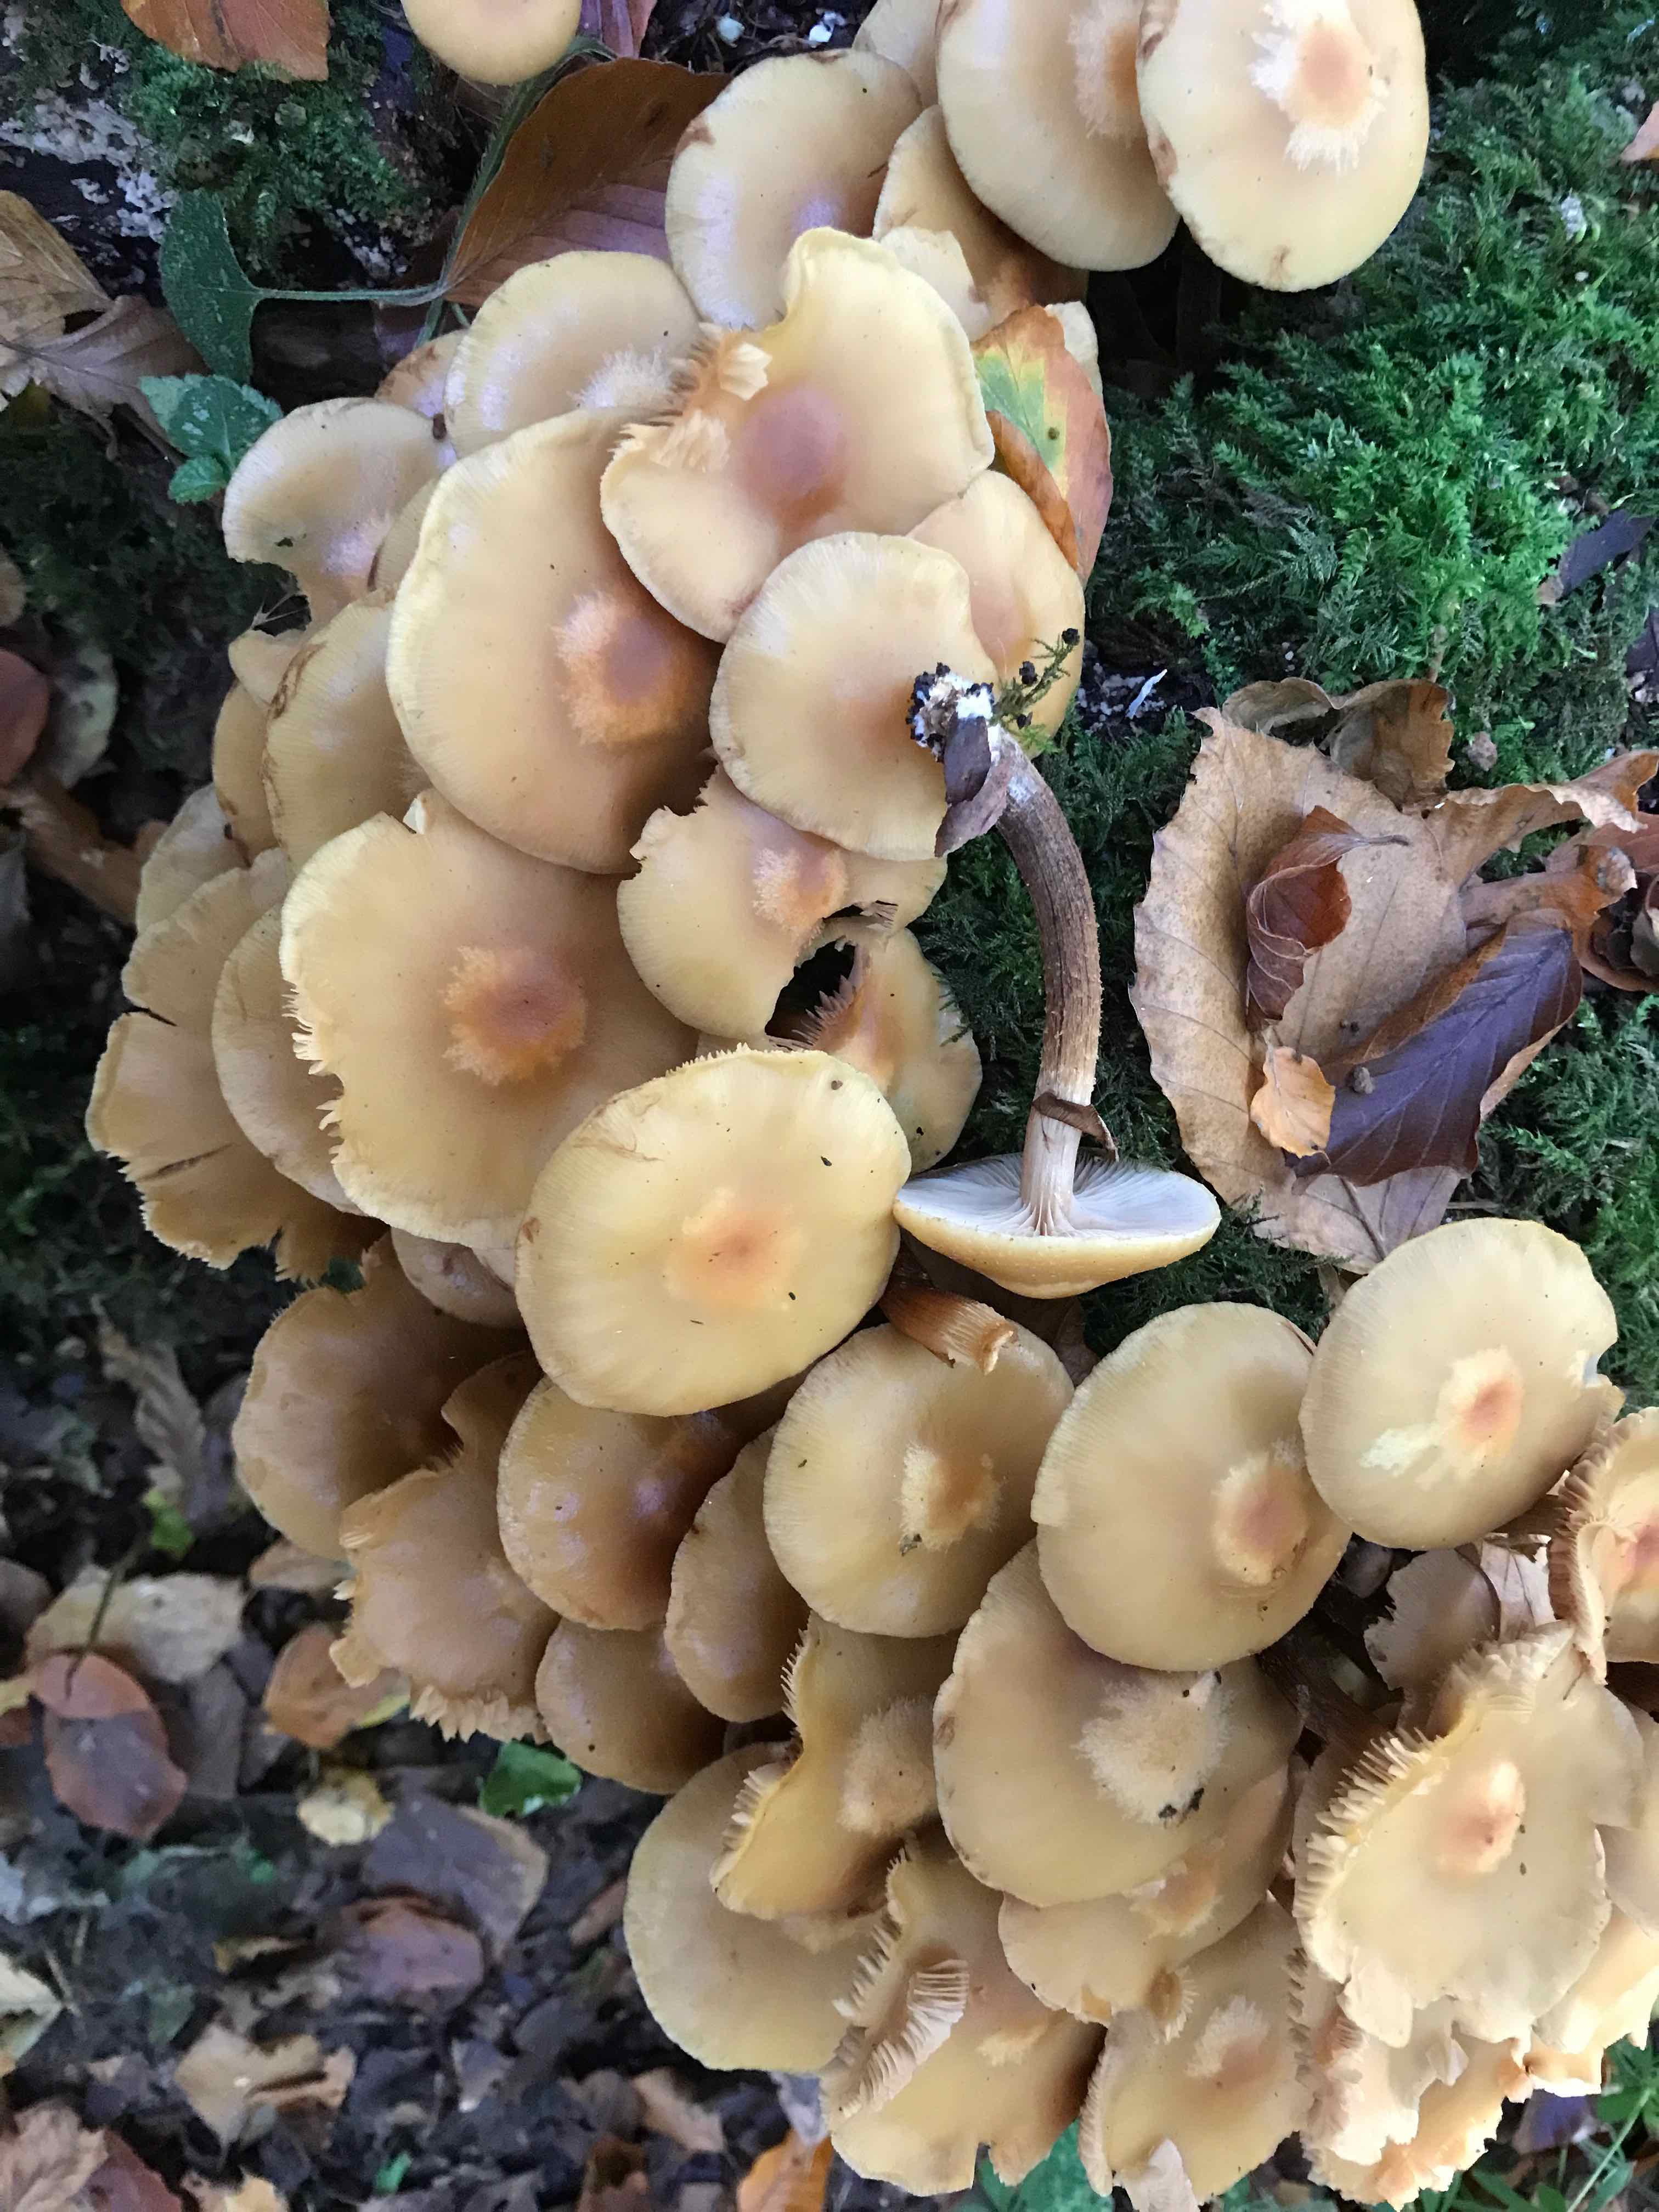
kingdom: Fungi
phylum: Basidiomycota
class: Agaricomycetes
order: Agaricales
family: Strophariaceae
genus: Kuehneromyces
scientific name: Kuehneromyces mutabilis
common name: foranderlig skælhat
